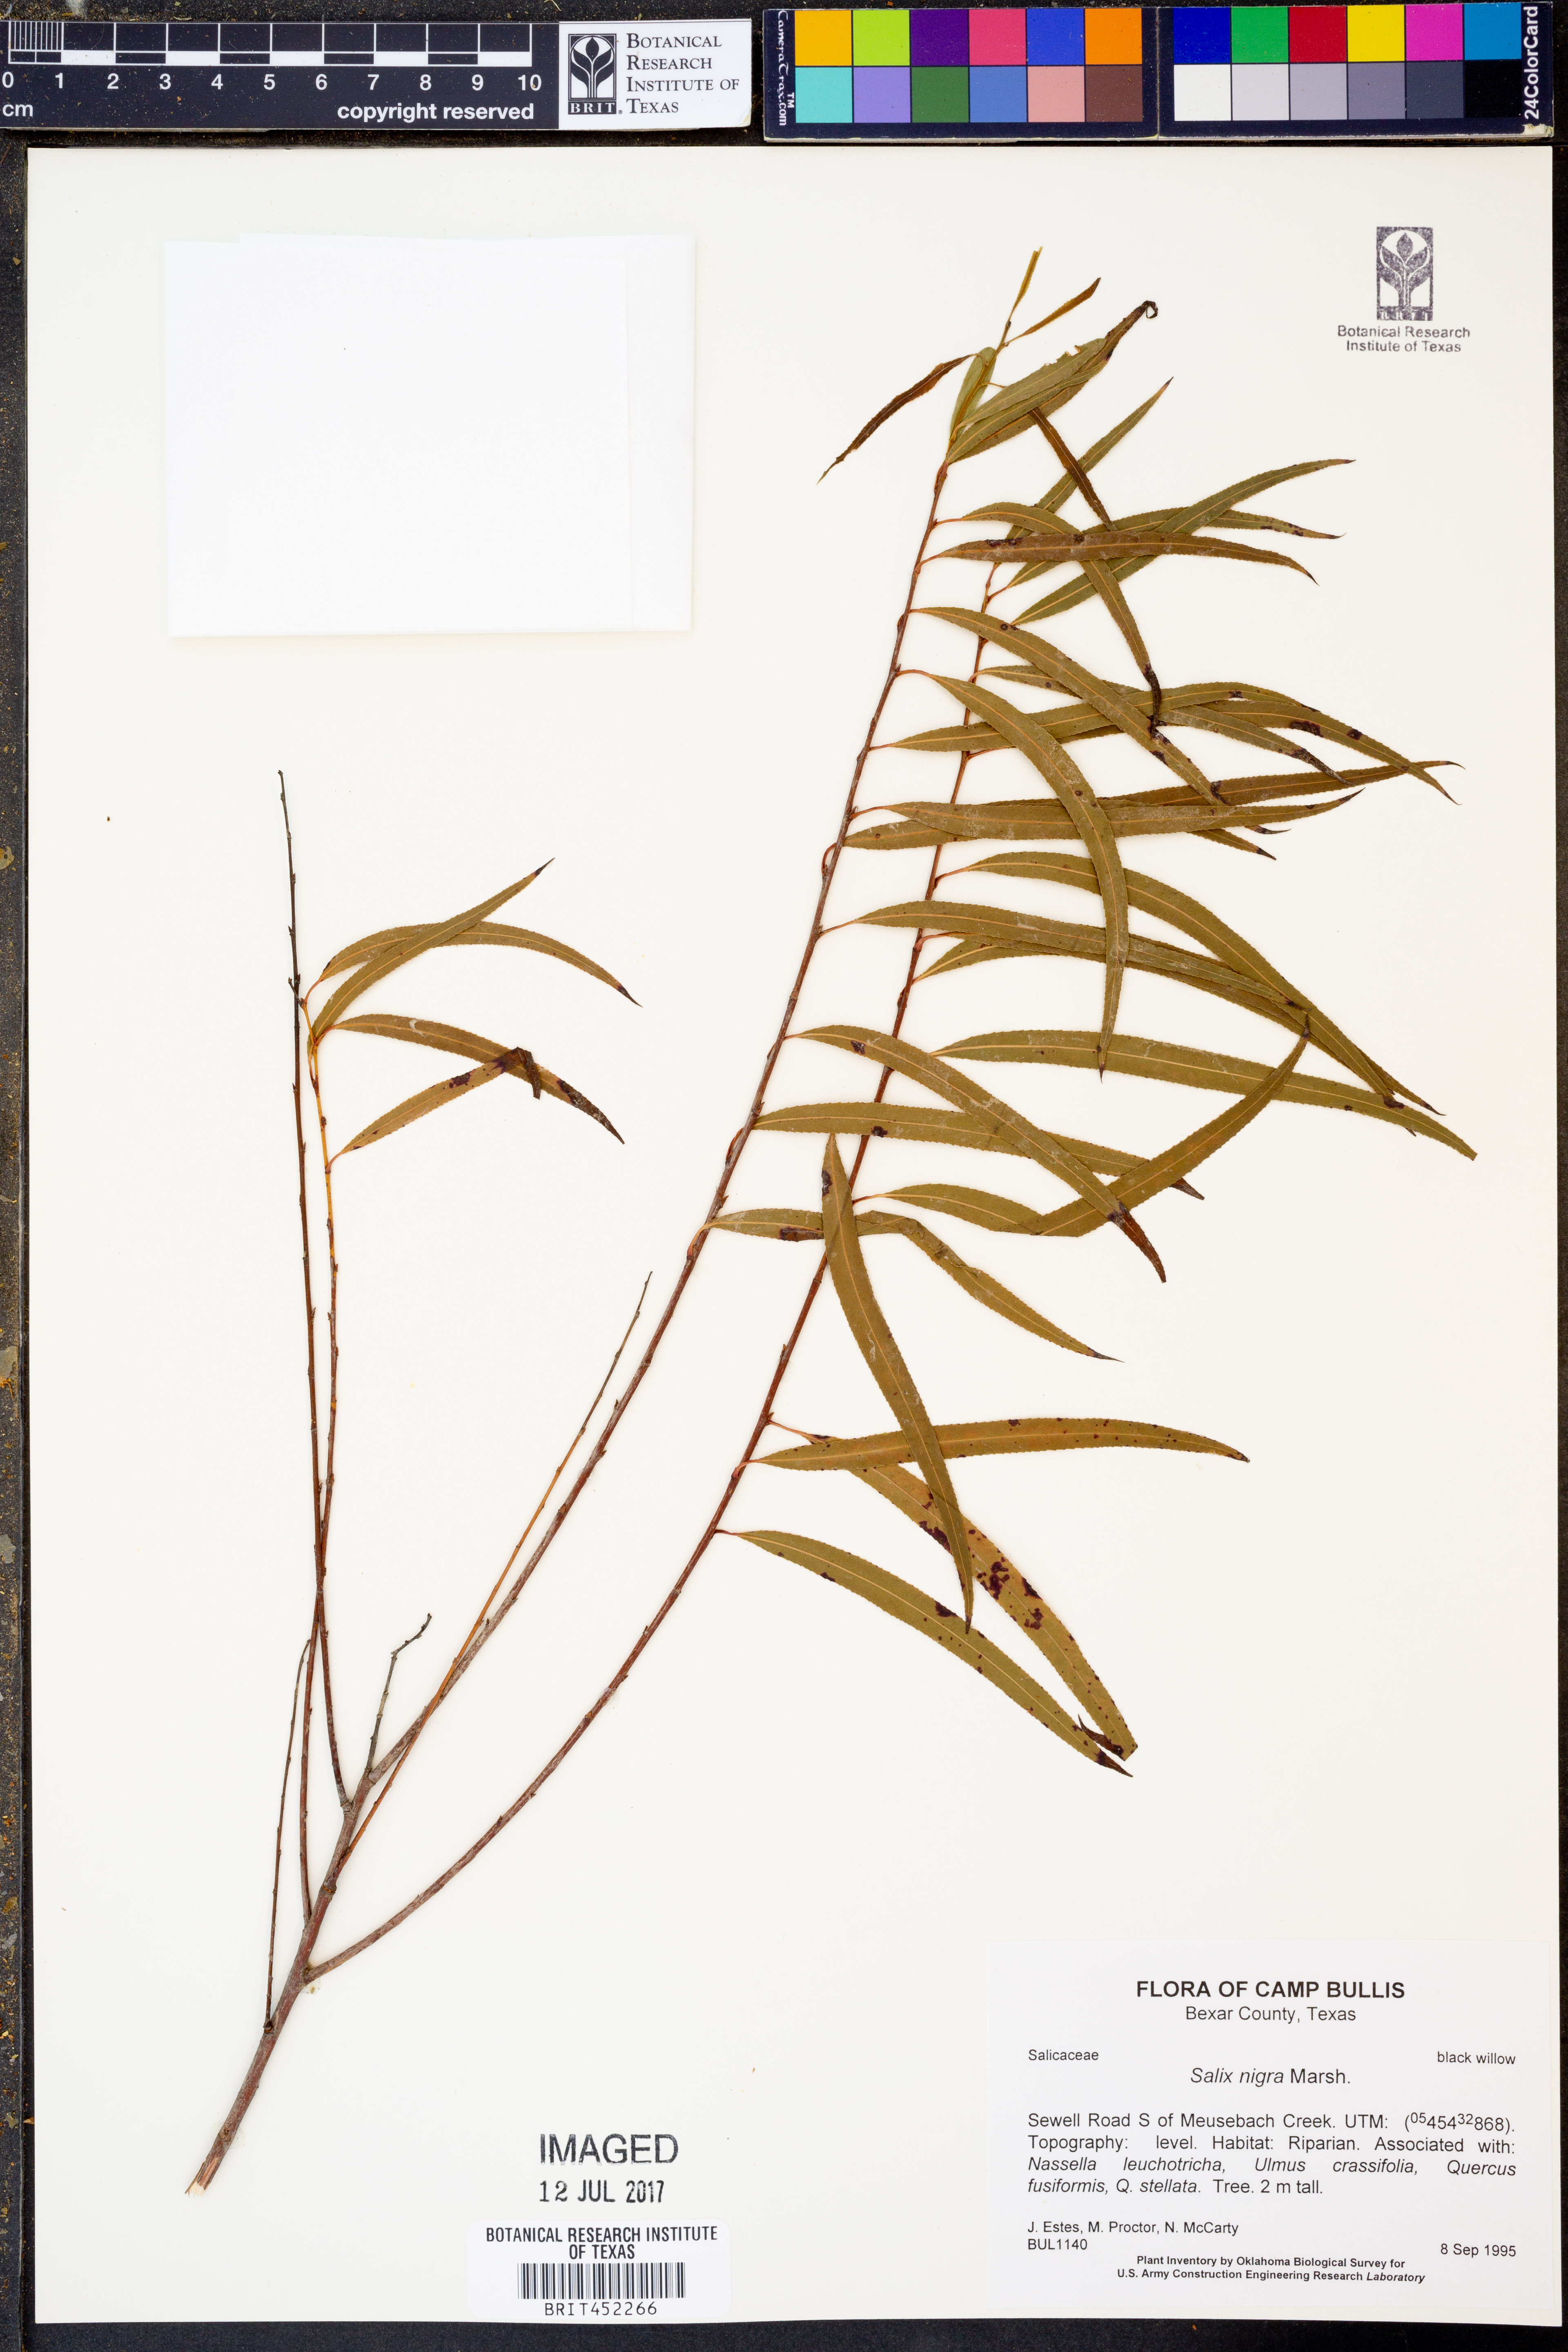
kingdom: Plantae
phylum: Tracheophyta
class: Magnoliopsida
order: Malpighiales
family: Salicaceae
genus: Salix
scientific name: Salix nigra
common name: Black willow
